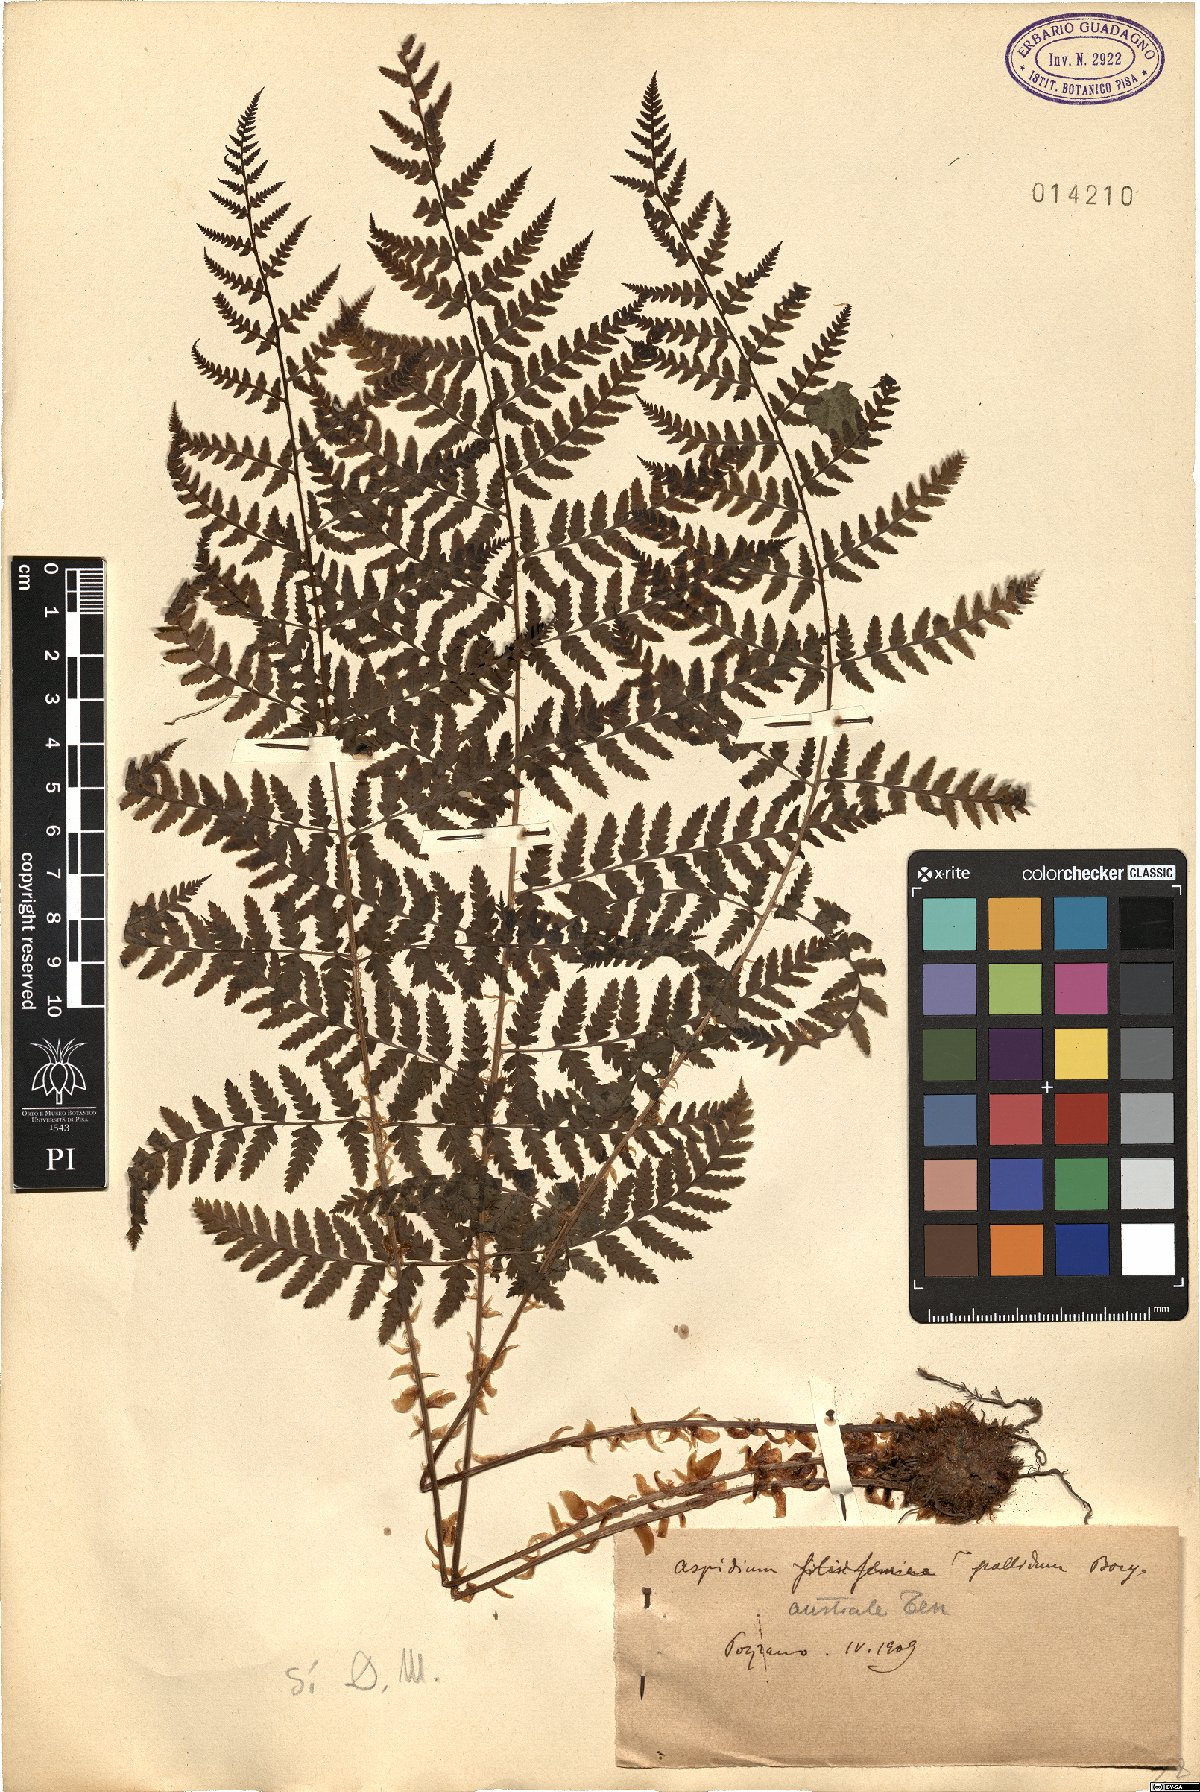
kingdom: Plantae
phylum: Tracheophyta
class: Polypodiopsida
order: Polypodiales
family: Dryopteridaceae
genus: Dryopteris
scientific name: Dryopteris pallida
